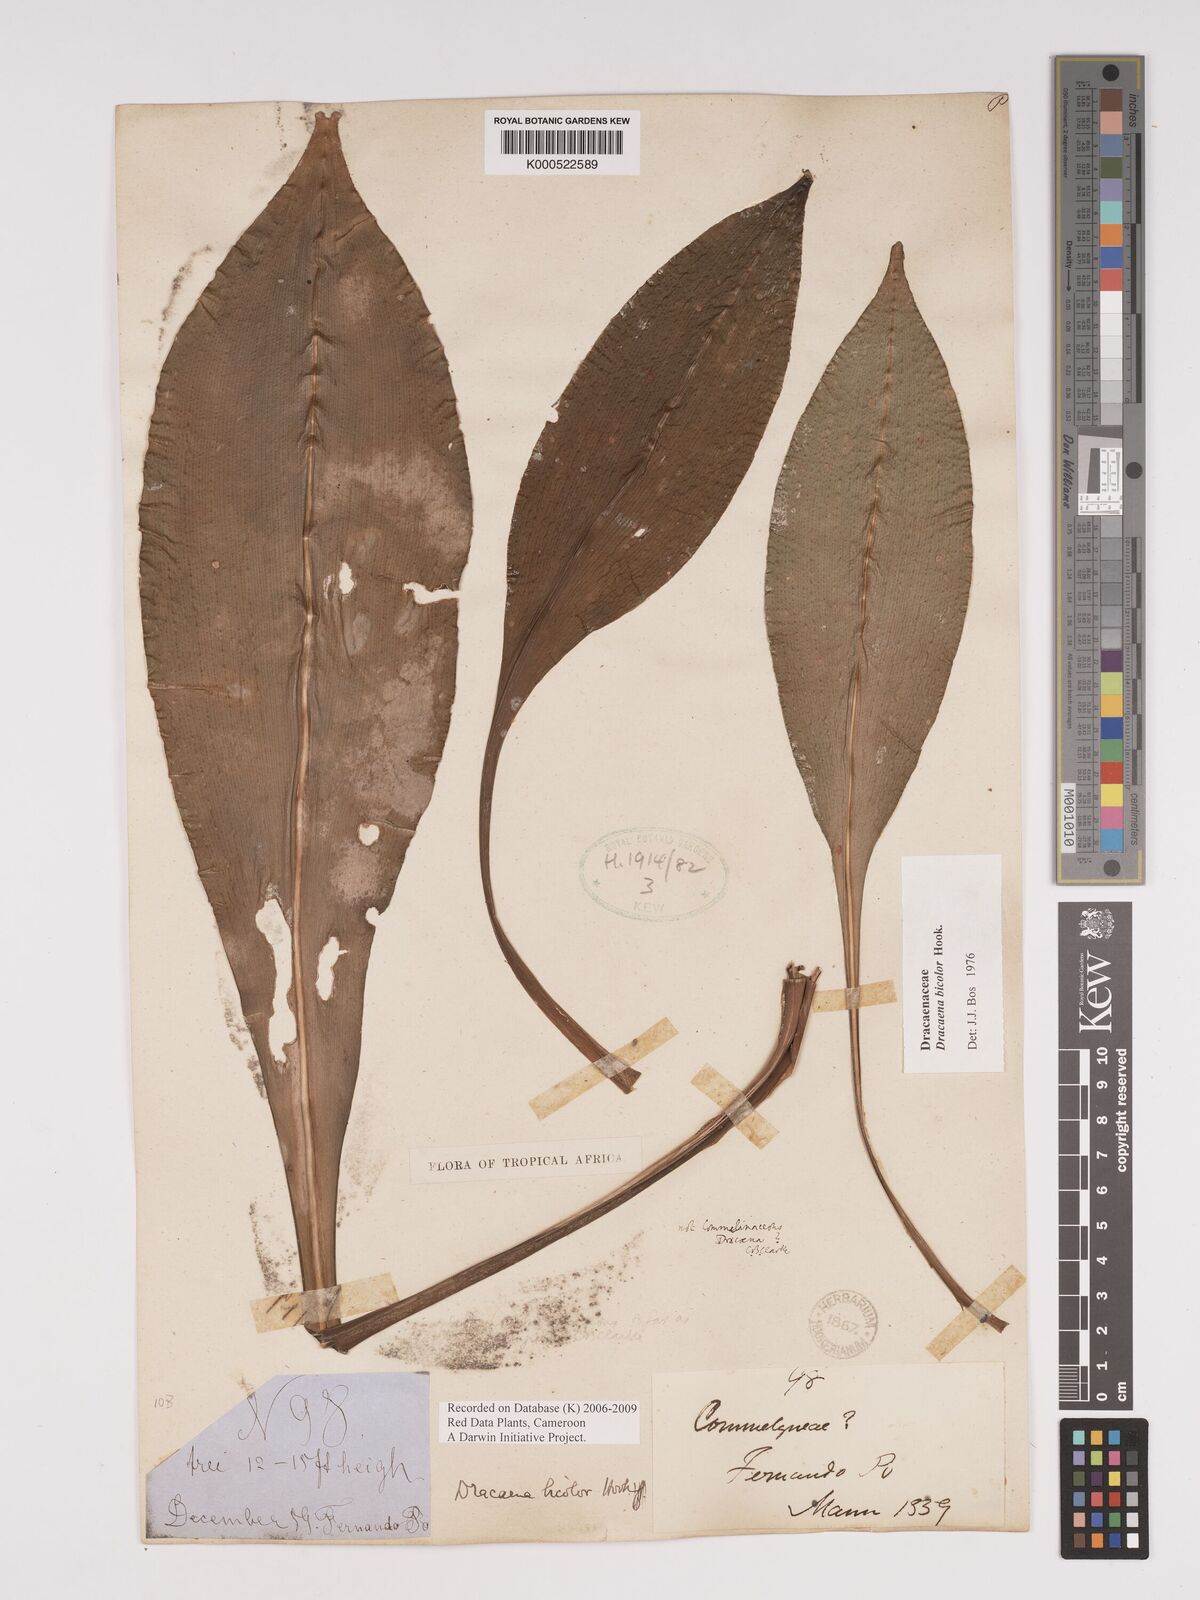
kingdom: Plantae
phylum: Tracheophyta
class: Liliopsida
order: Asparagales
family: Asparagaceae
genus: Dracaena
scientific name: Dracaena bicolor
